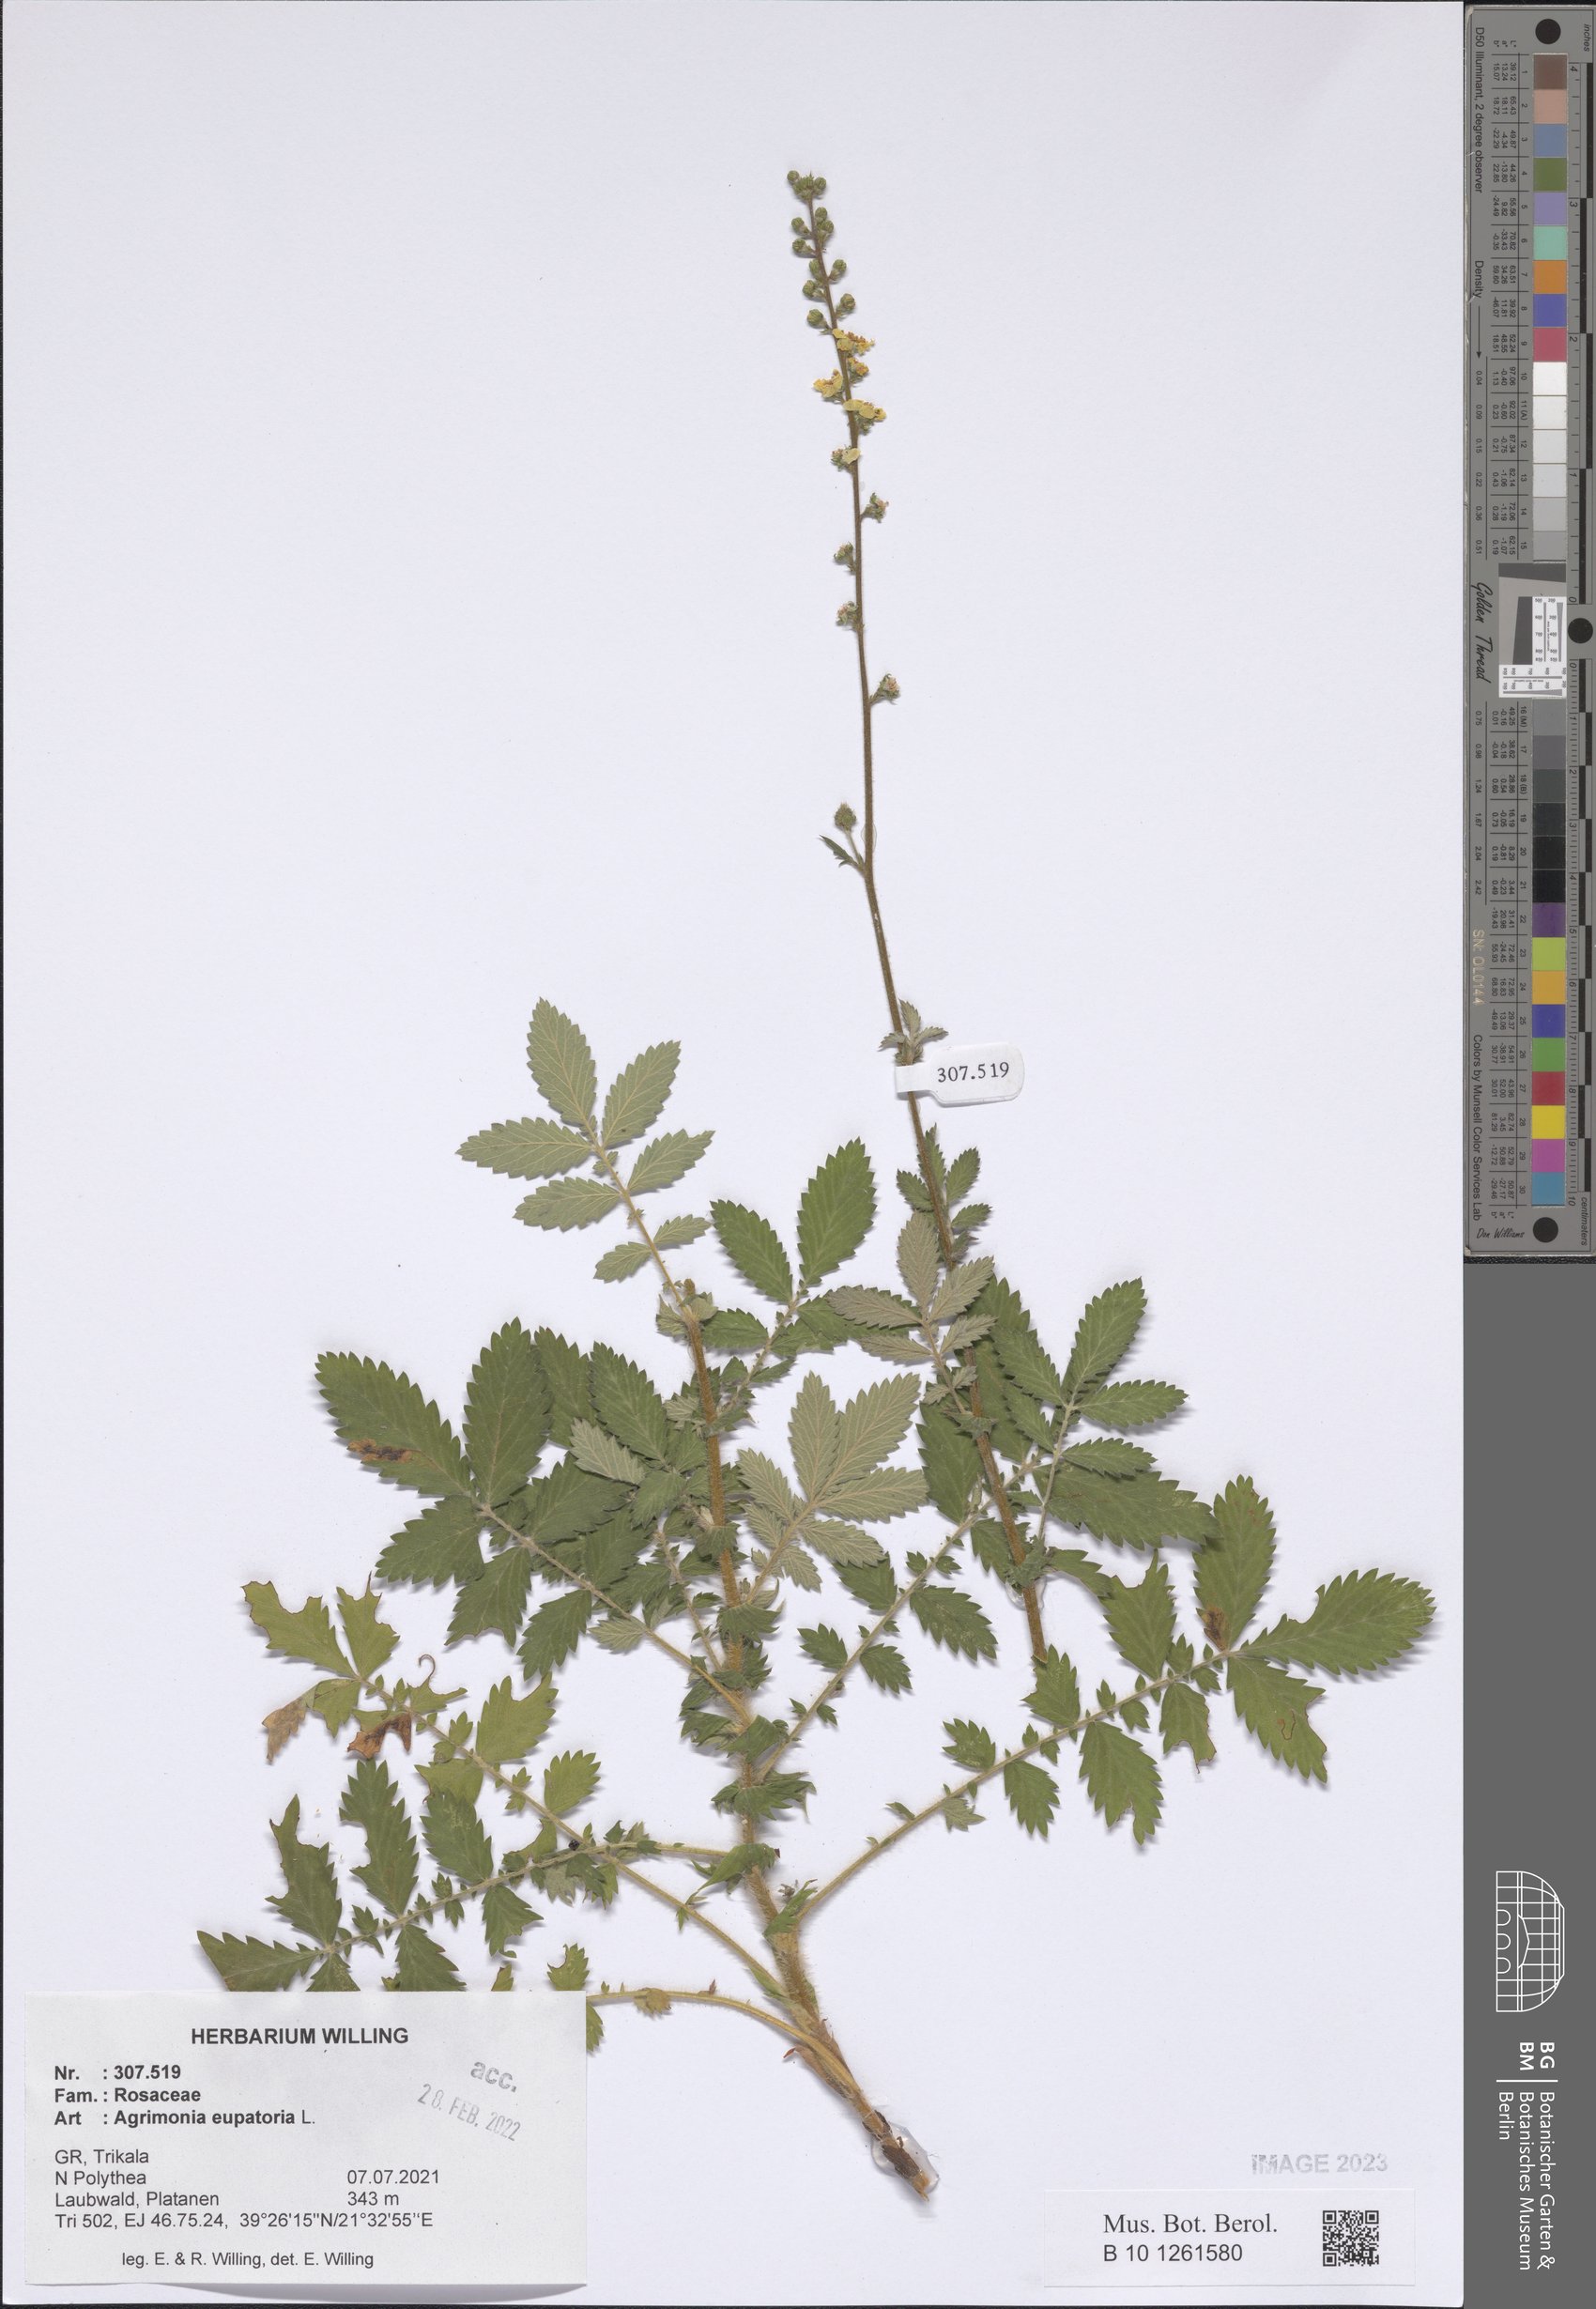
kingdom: Plantae
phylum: Tracheophyta
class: Magnoliopsida
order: Rosales
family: Rosaceae
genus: Agrimonia
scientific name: Agrimonia eupatoria
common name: Agrimony
